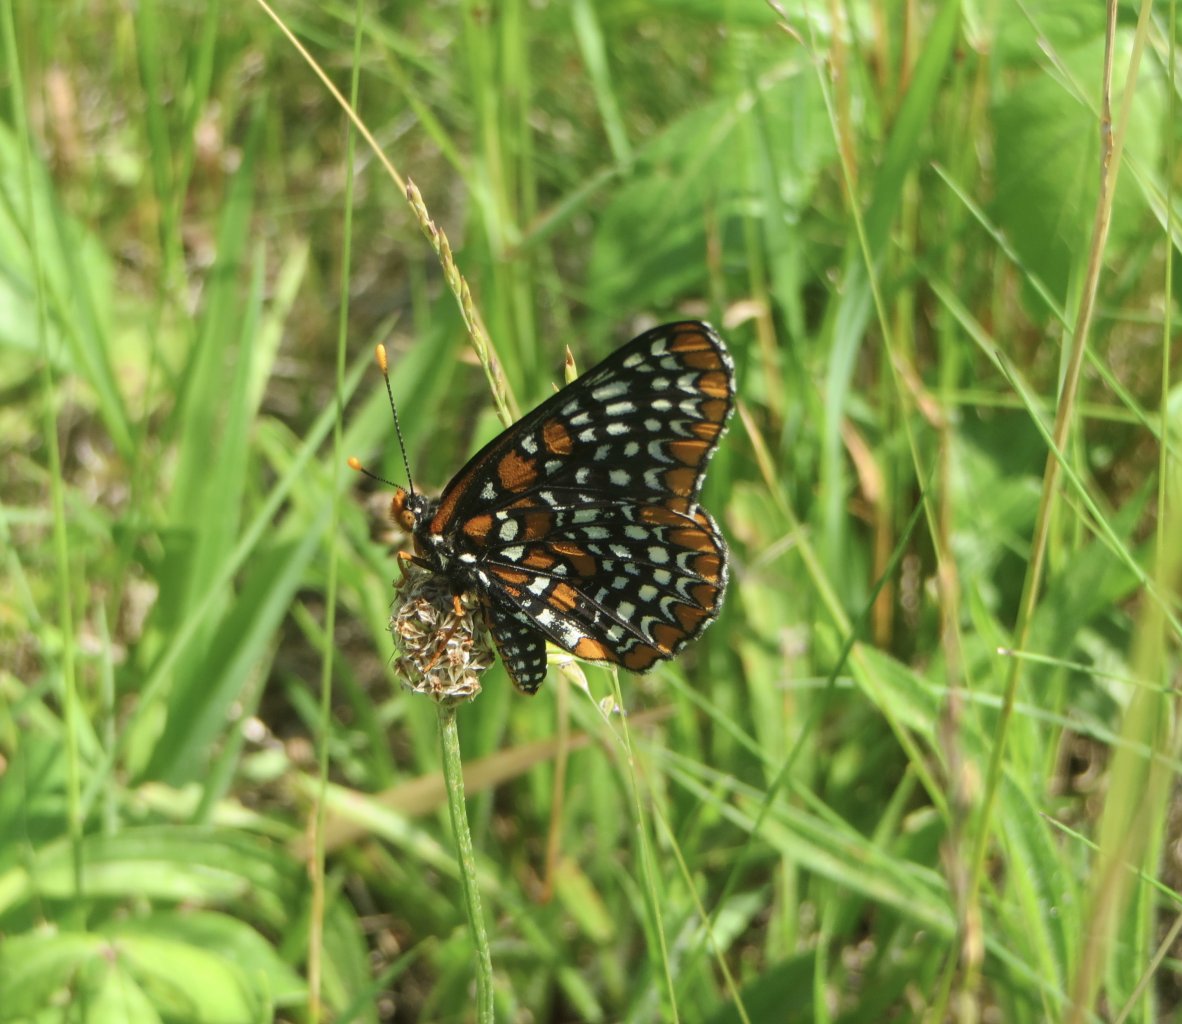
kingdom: Animalia
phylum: Arthropoda
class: Insecta
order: Lepidoptera
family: Nymphalidae
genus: Euphydryas
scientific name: Euphydryas phaeton
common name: Baltimore Checkerspot
